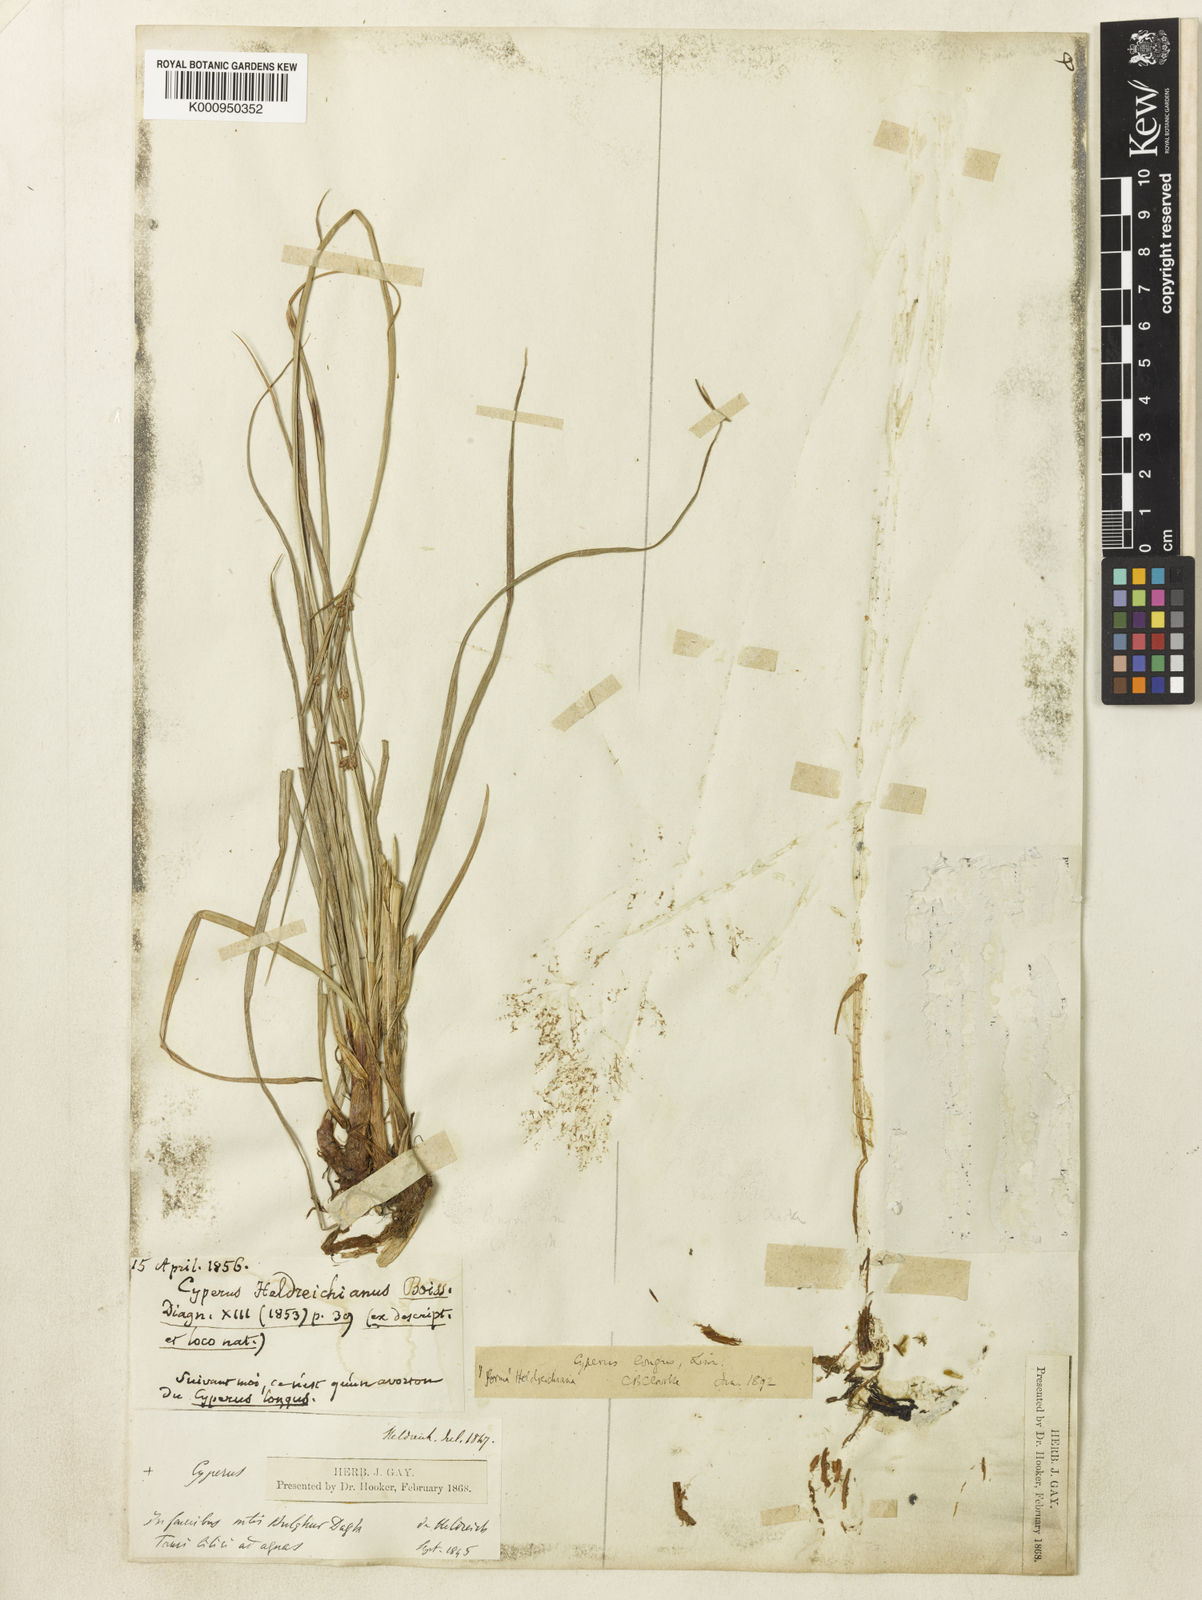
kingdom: Plantae
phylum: Tracheophyta
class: Liliopsida
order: Poales
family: Cyperaceae
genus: Cyperus
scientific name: Cyperus longus
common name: Galingale
